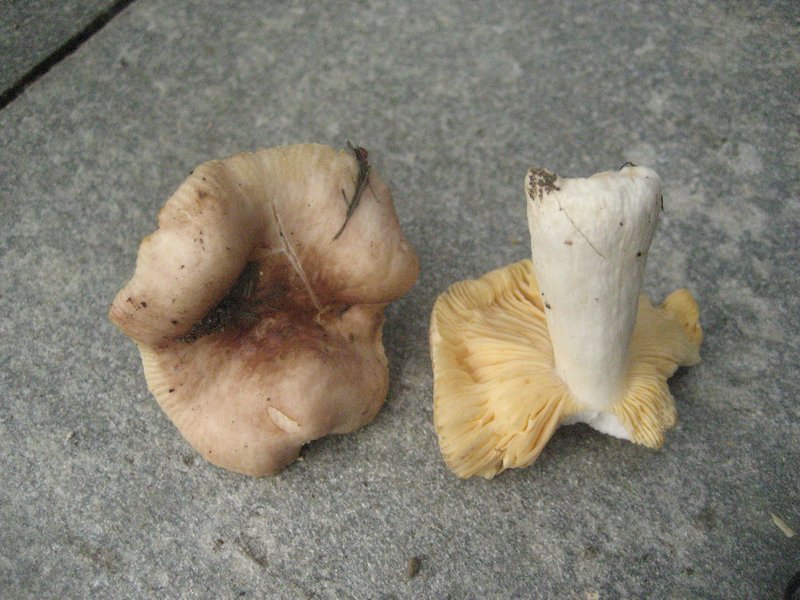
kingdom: Fungi
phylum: Basidiomycota
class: Agaricomycetes
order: Russulales
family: Russulaceae
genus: Russula
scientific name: Russula odorata
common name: duft-skørhat
